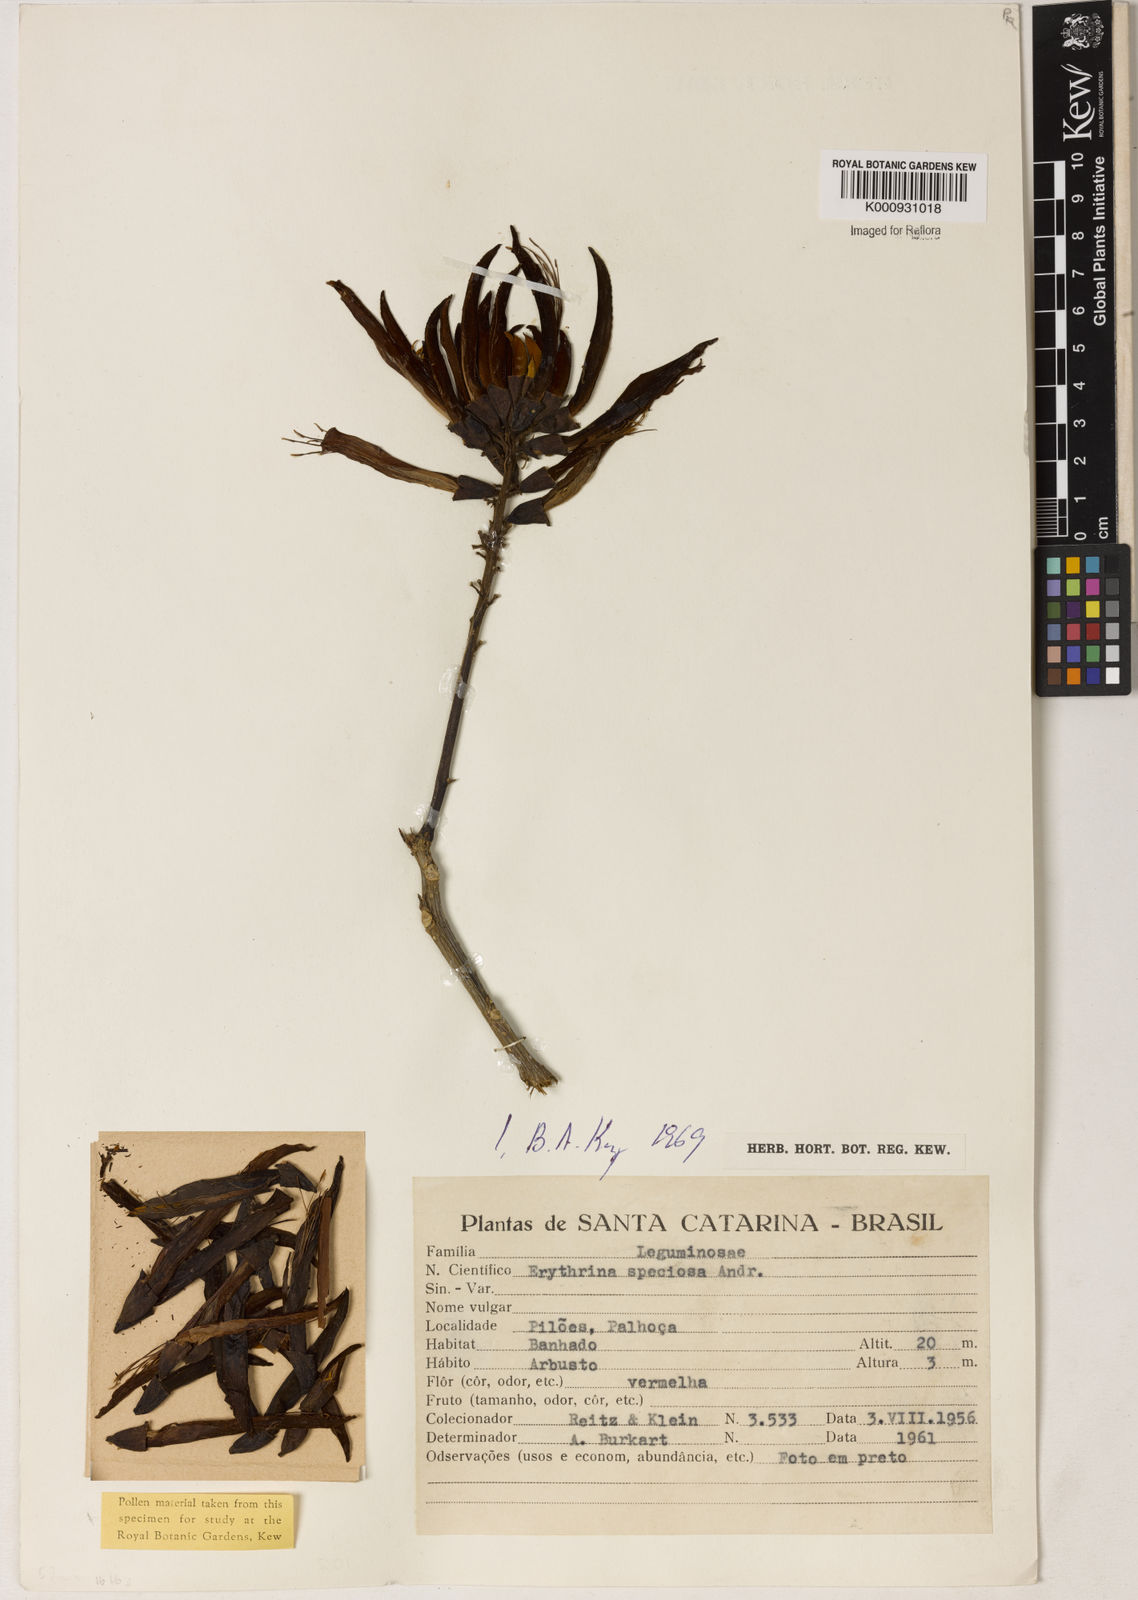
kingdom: Plantae
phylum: Tracheophyta
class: Magnoliopsida
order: Fabales
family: Fabaceae
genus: Erythrina
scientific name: Erythrina speciosa
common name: Coral tree
